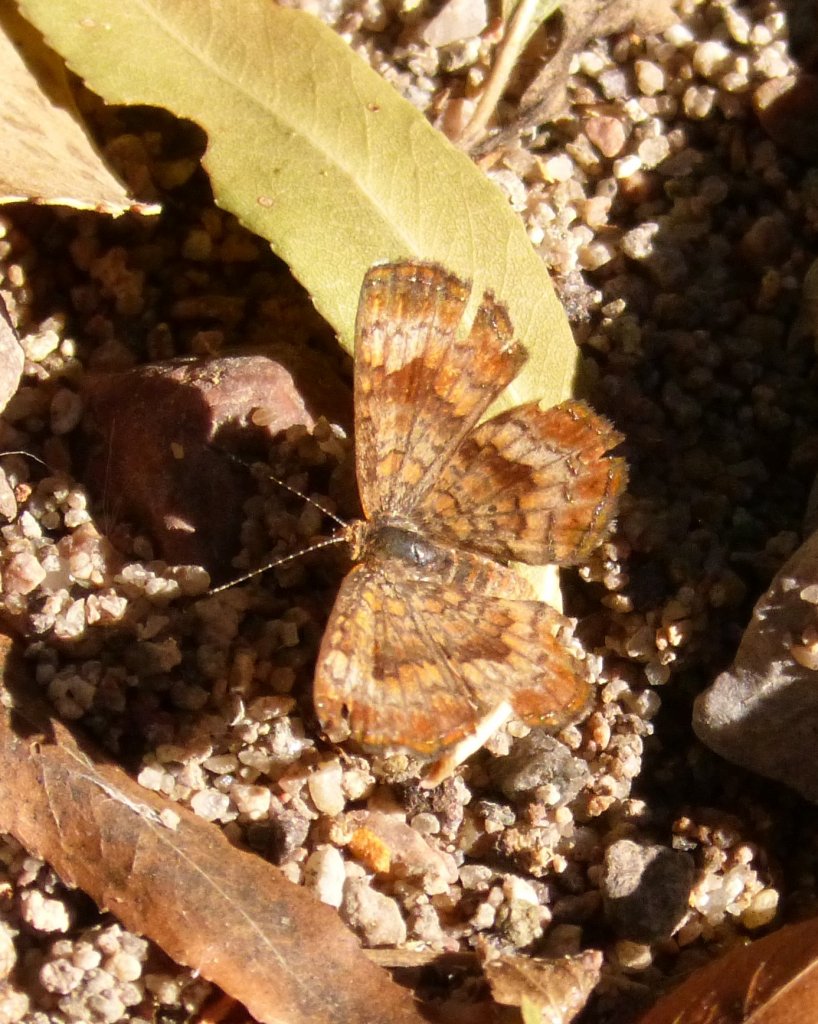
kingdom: Animalia
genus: Calephelis
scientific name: Calephelis nemesis
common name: Fatal Metalmark
